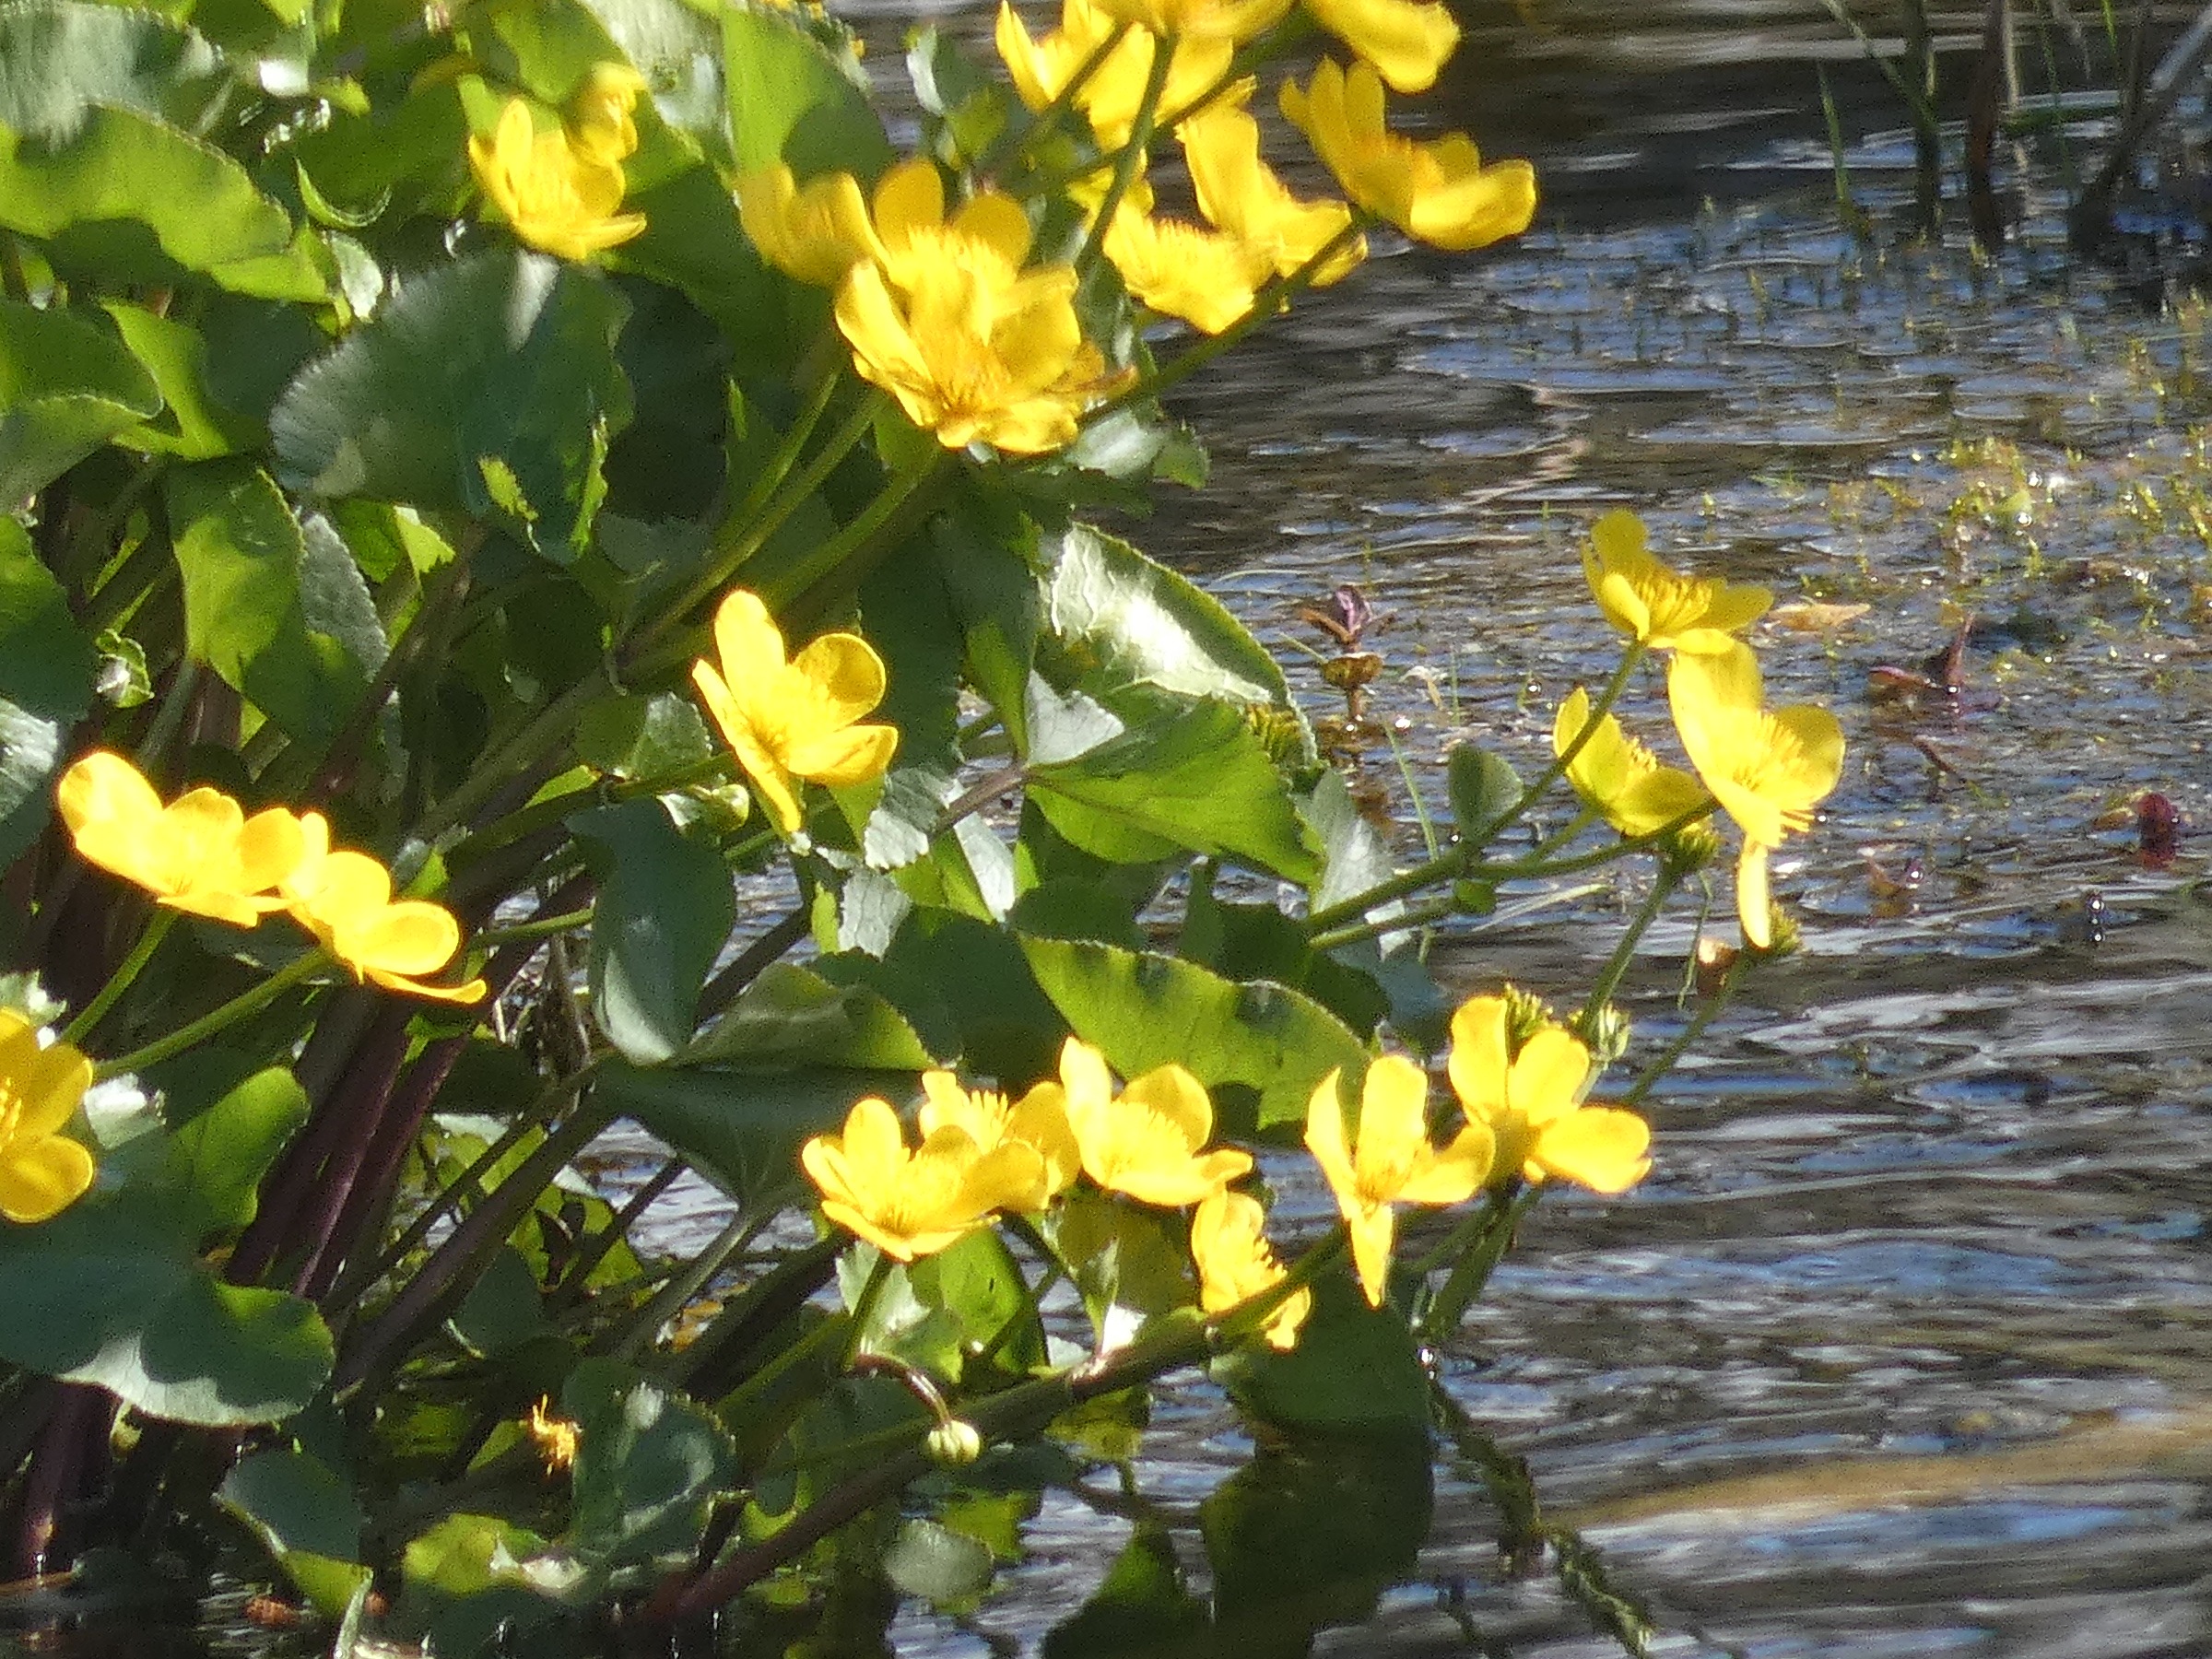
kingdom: Plantae
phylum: Tracheophyta
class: Magnoliopsida
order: Ranunculales
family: Ranunculaceae
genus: Caltha
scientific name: Caltha palustris
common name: Eng-kabbeleje
